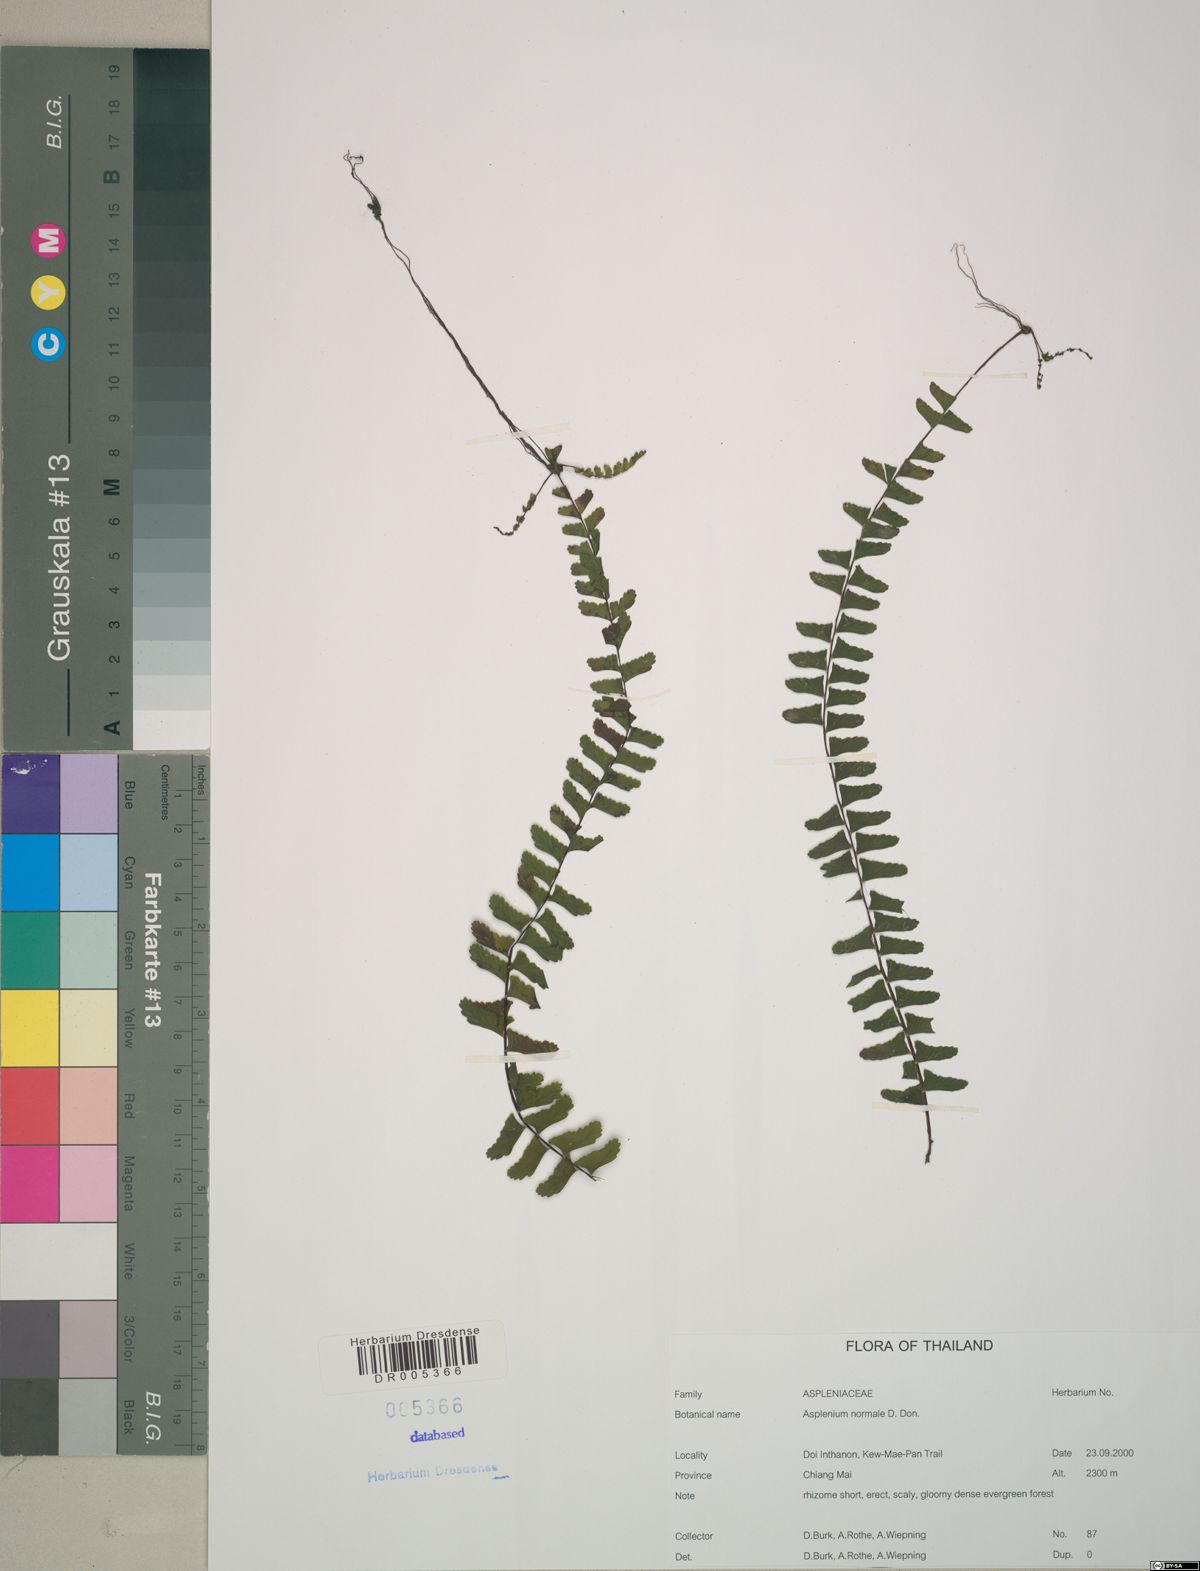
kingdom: Plantae
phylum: Tracheophyta
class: Polypodiopsida
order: Polypodiales
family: Aspleniaceae
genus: Asplenium
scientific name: Asplenium normale
